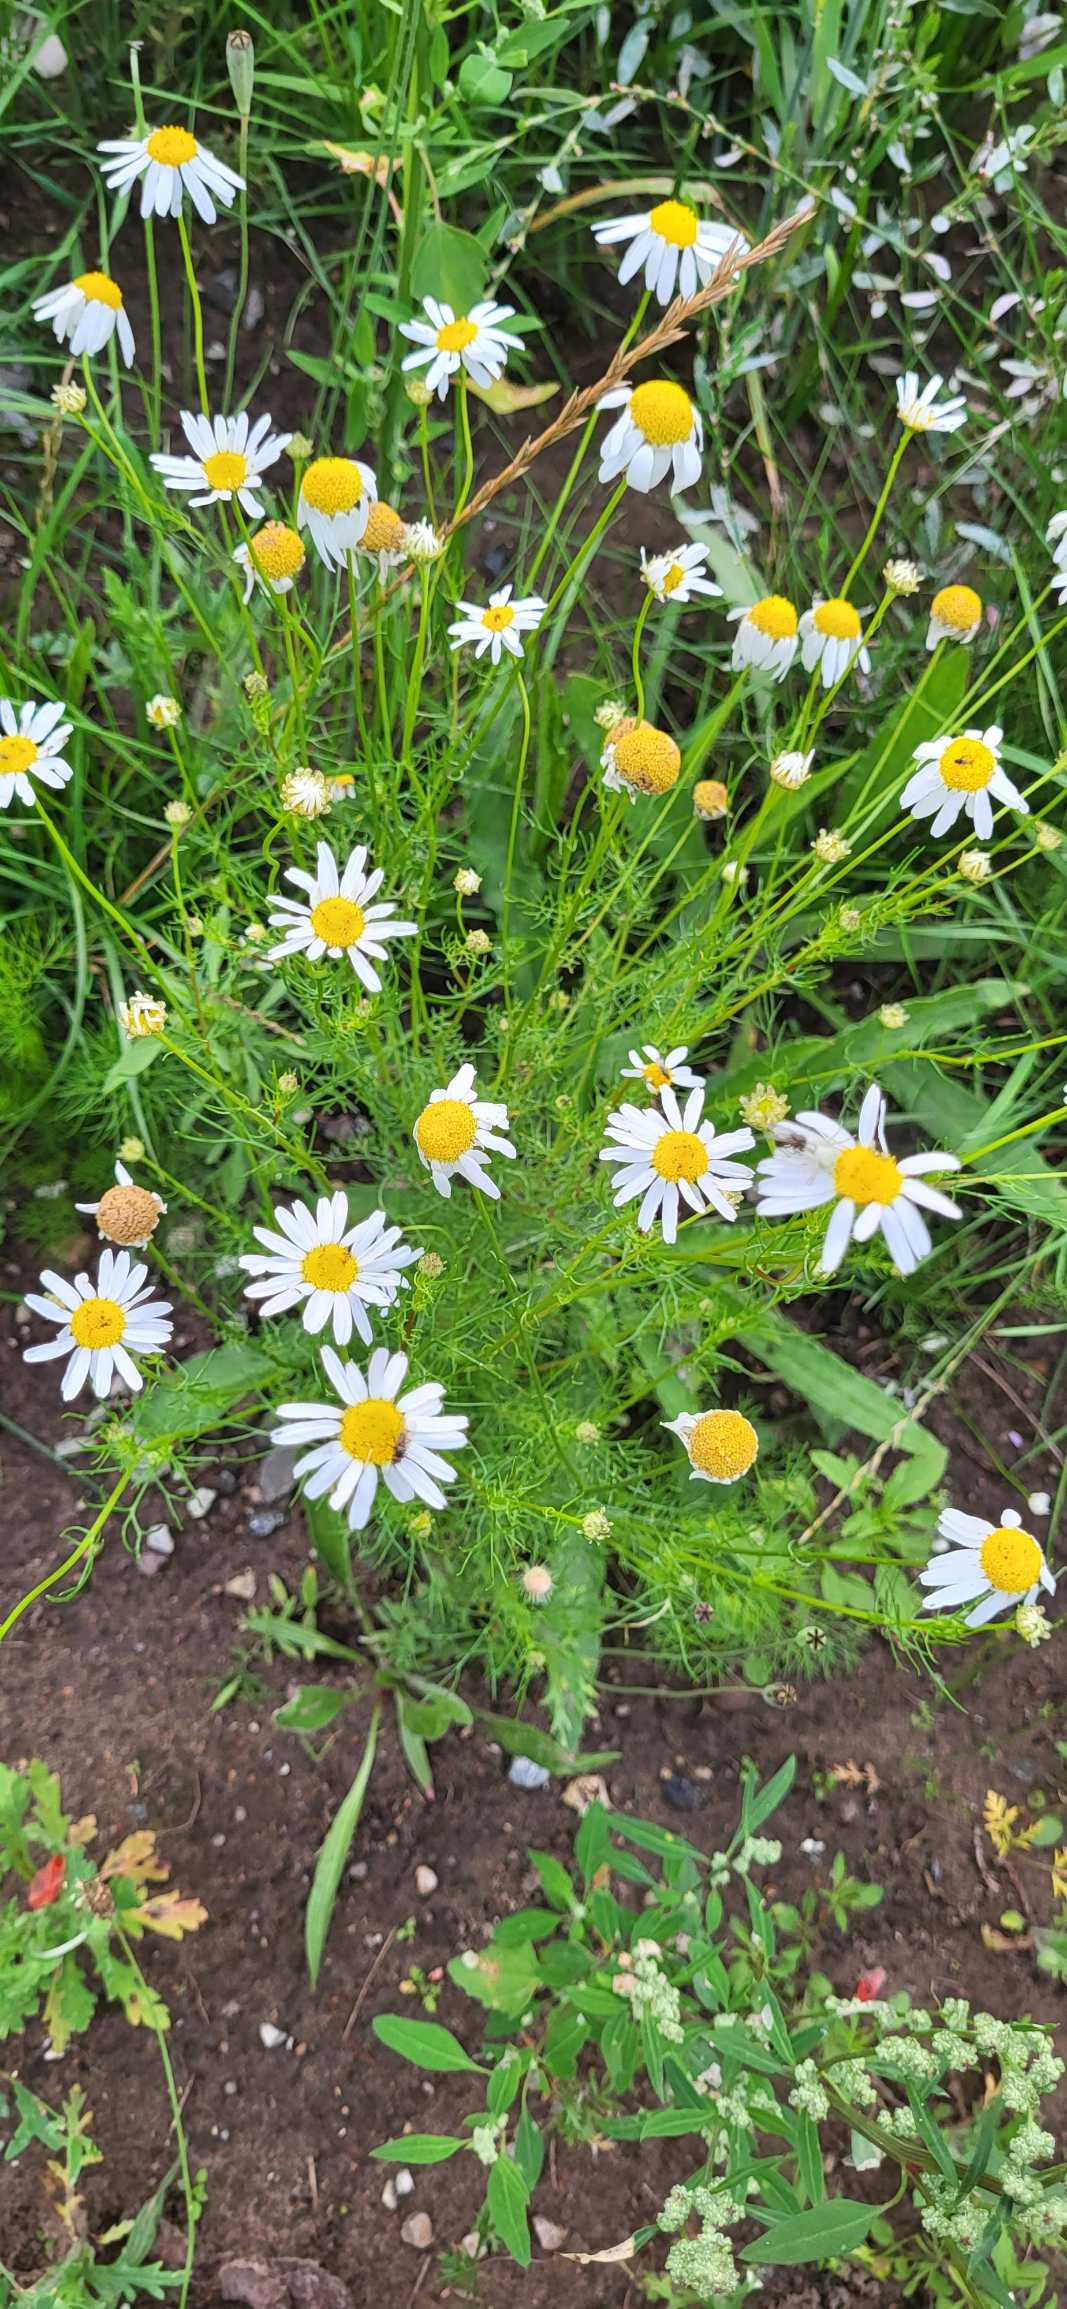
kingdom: Plantae
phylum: Tracheophyta
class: Magnoliopsida
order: Asterales
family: Asteraceae
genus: Tripleurospermum
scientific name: Tripleurospermum inodorum
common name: Lugtløs kamille
